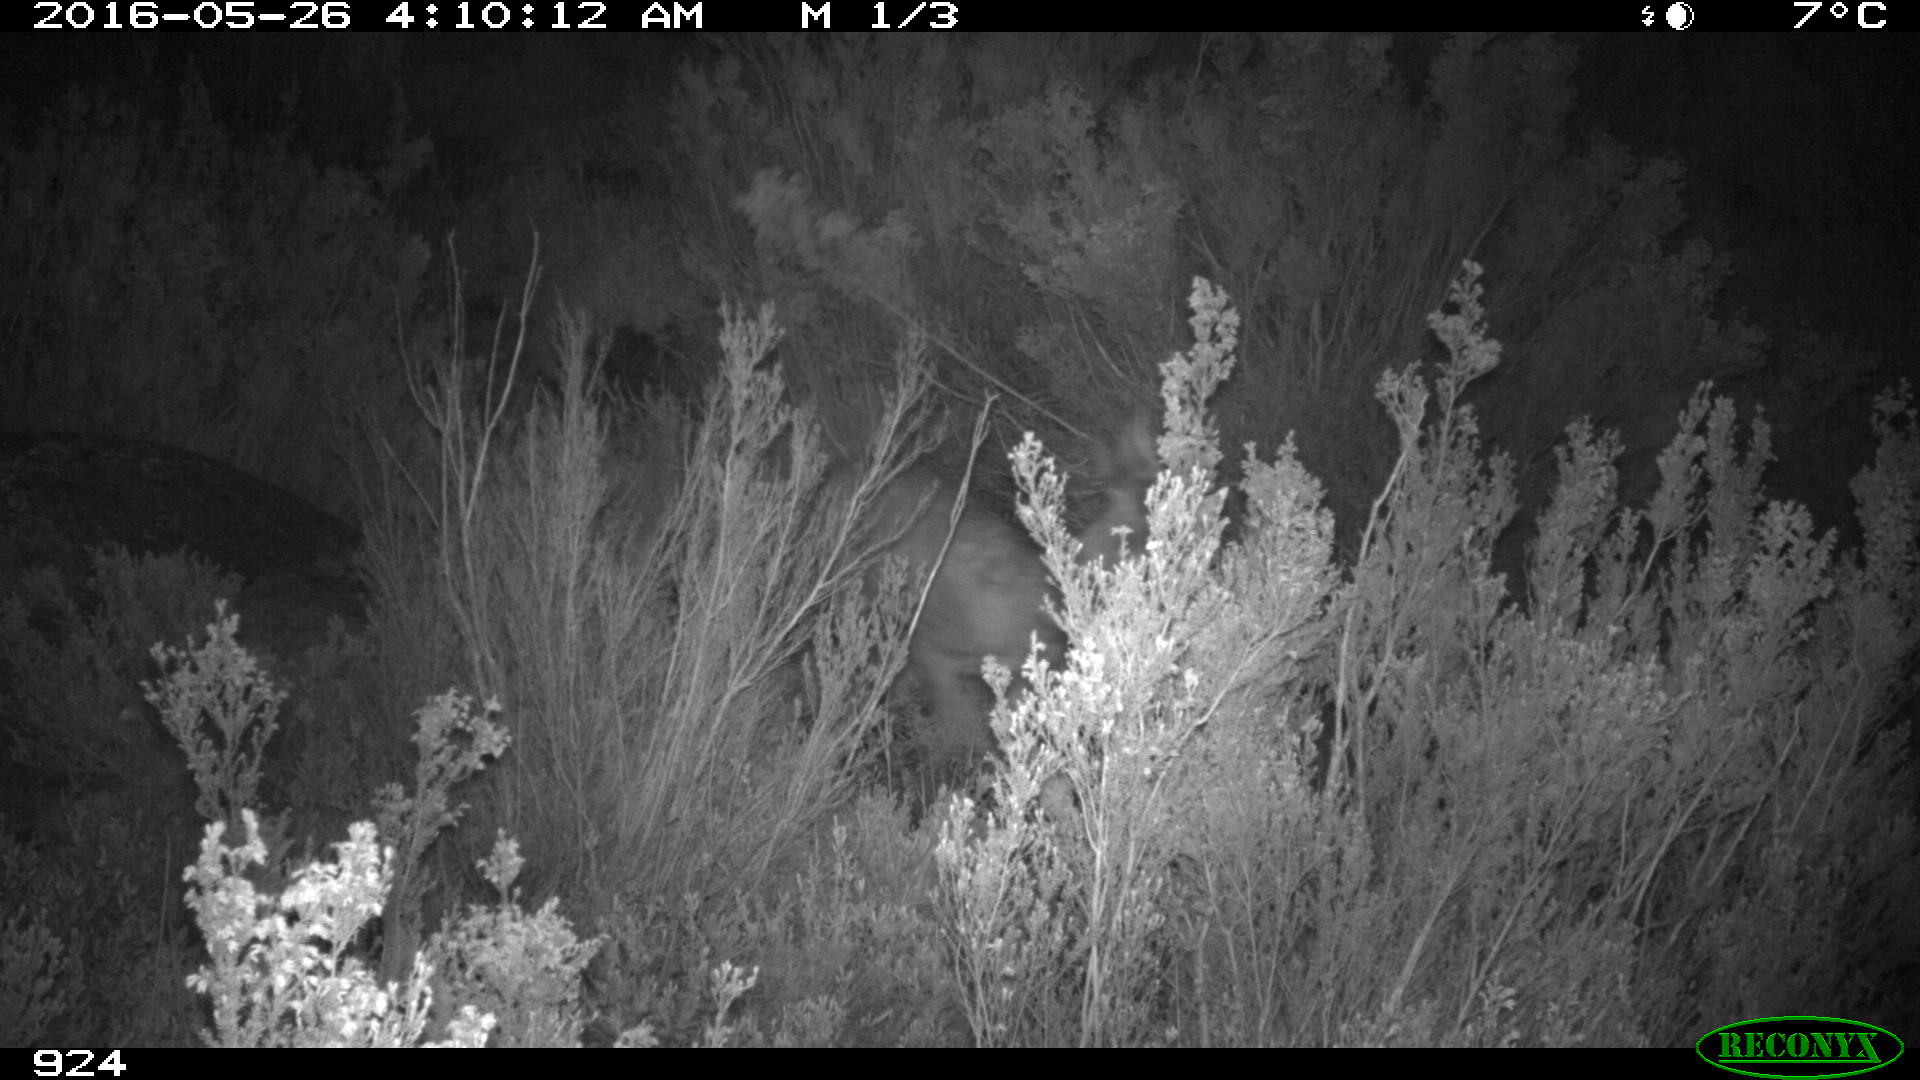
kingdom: Animalia
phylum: Chordata
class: Mammalia
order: Artiodactyla
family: Cervidae
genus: Capreolus
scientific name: Capreolus capreolus
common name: Western roe deer
